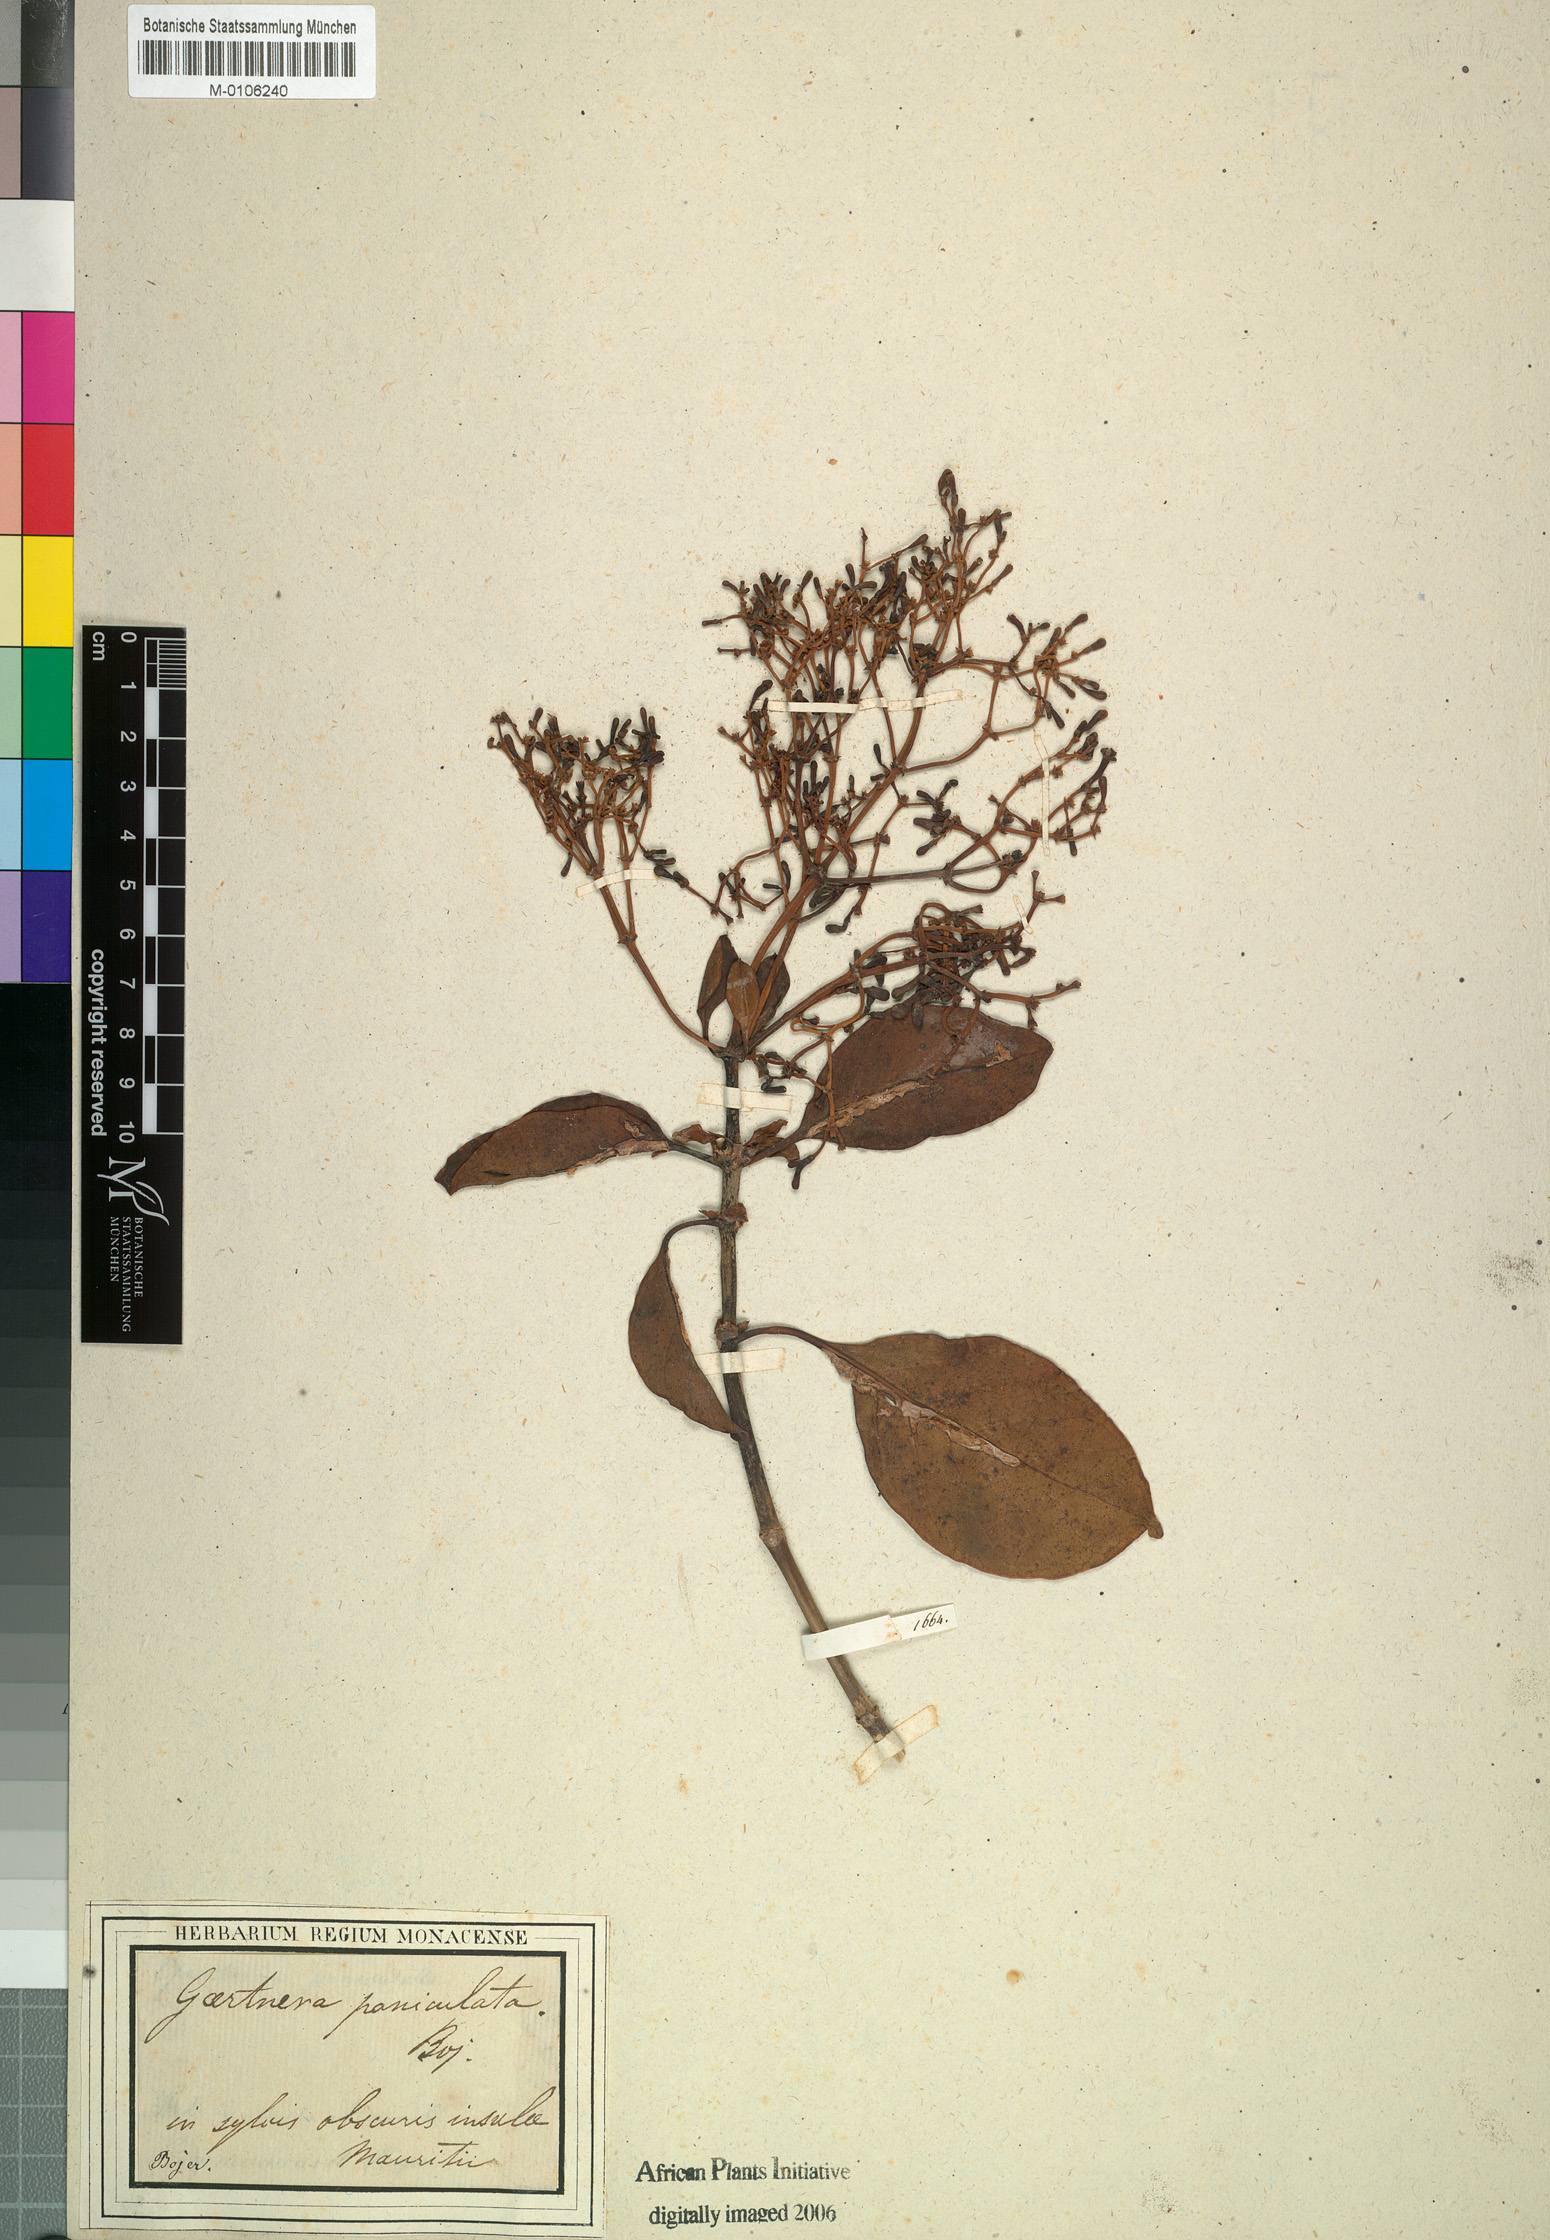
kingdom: Plantae
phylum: Tracheophyta
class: Magnoliopsida
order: Gentianales
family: Rubiaceae
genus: Chassalia
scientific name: Chassalia
